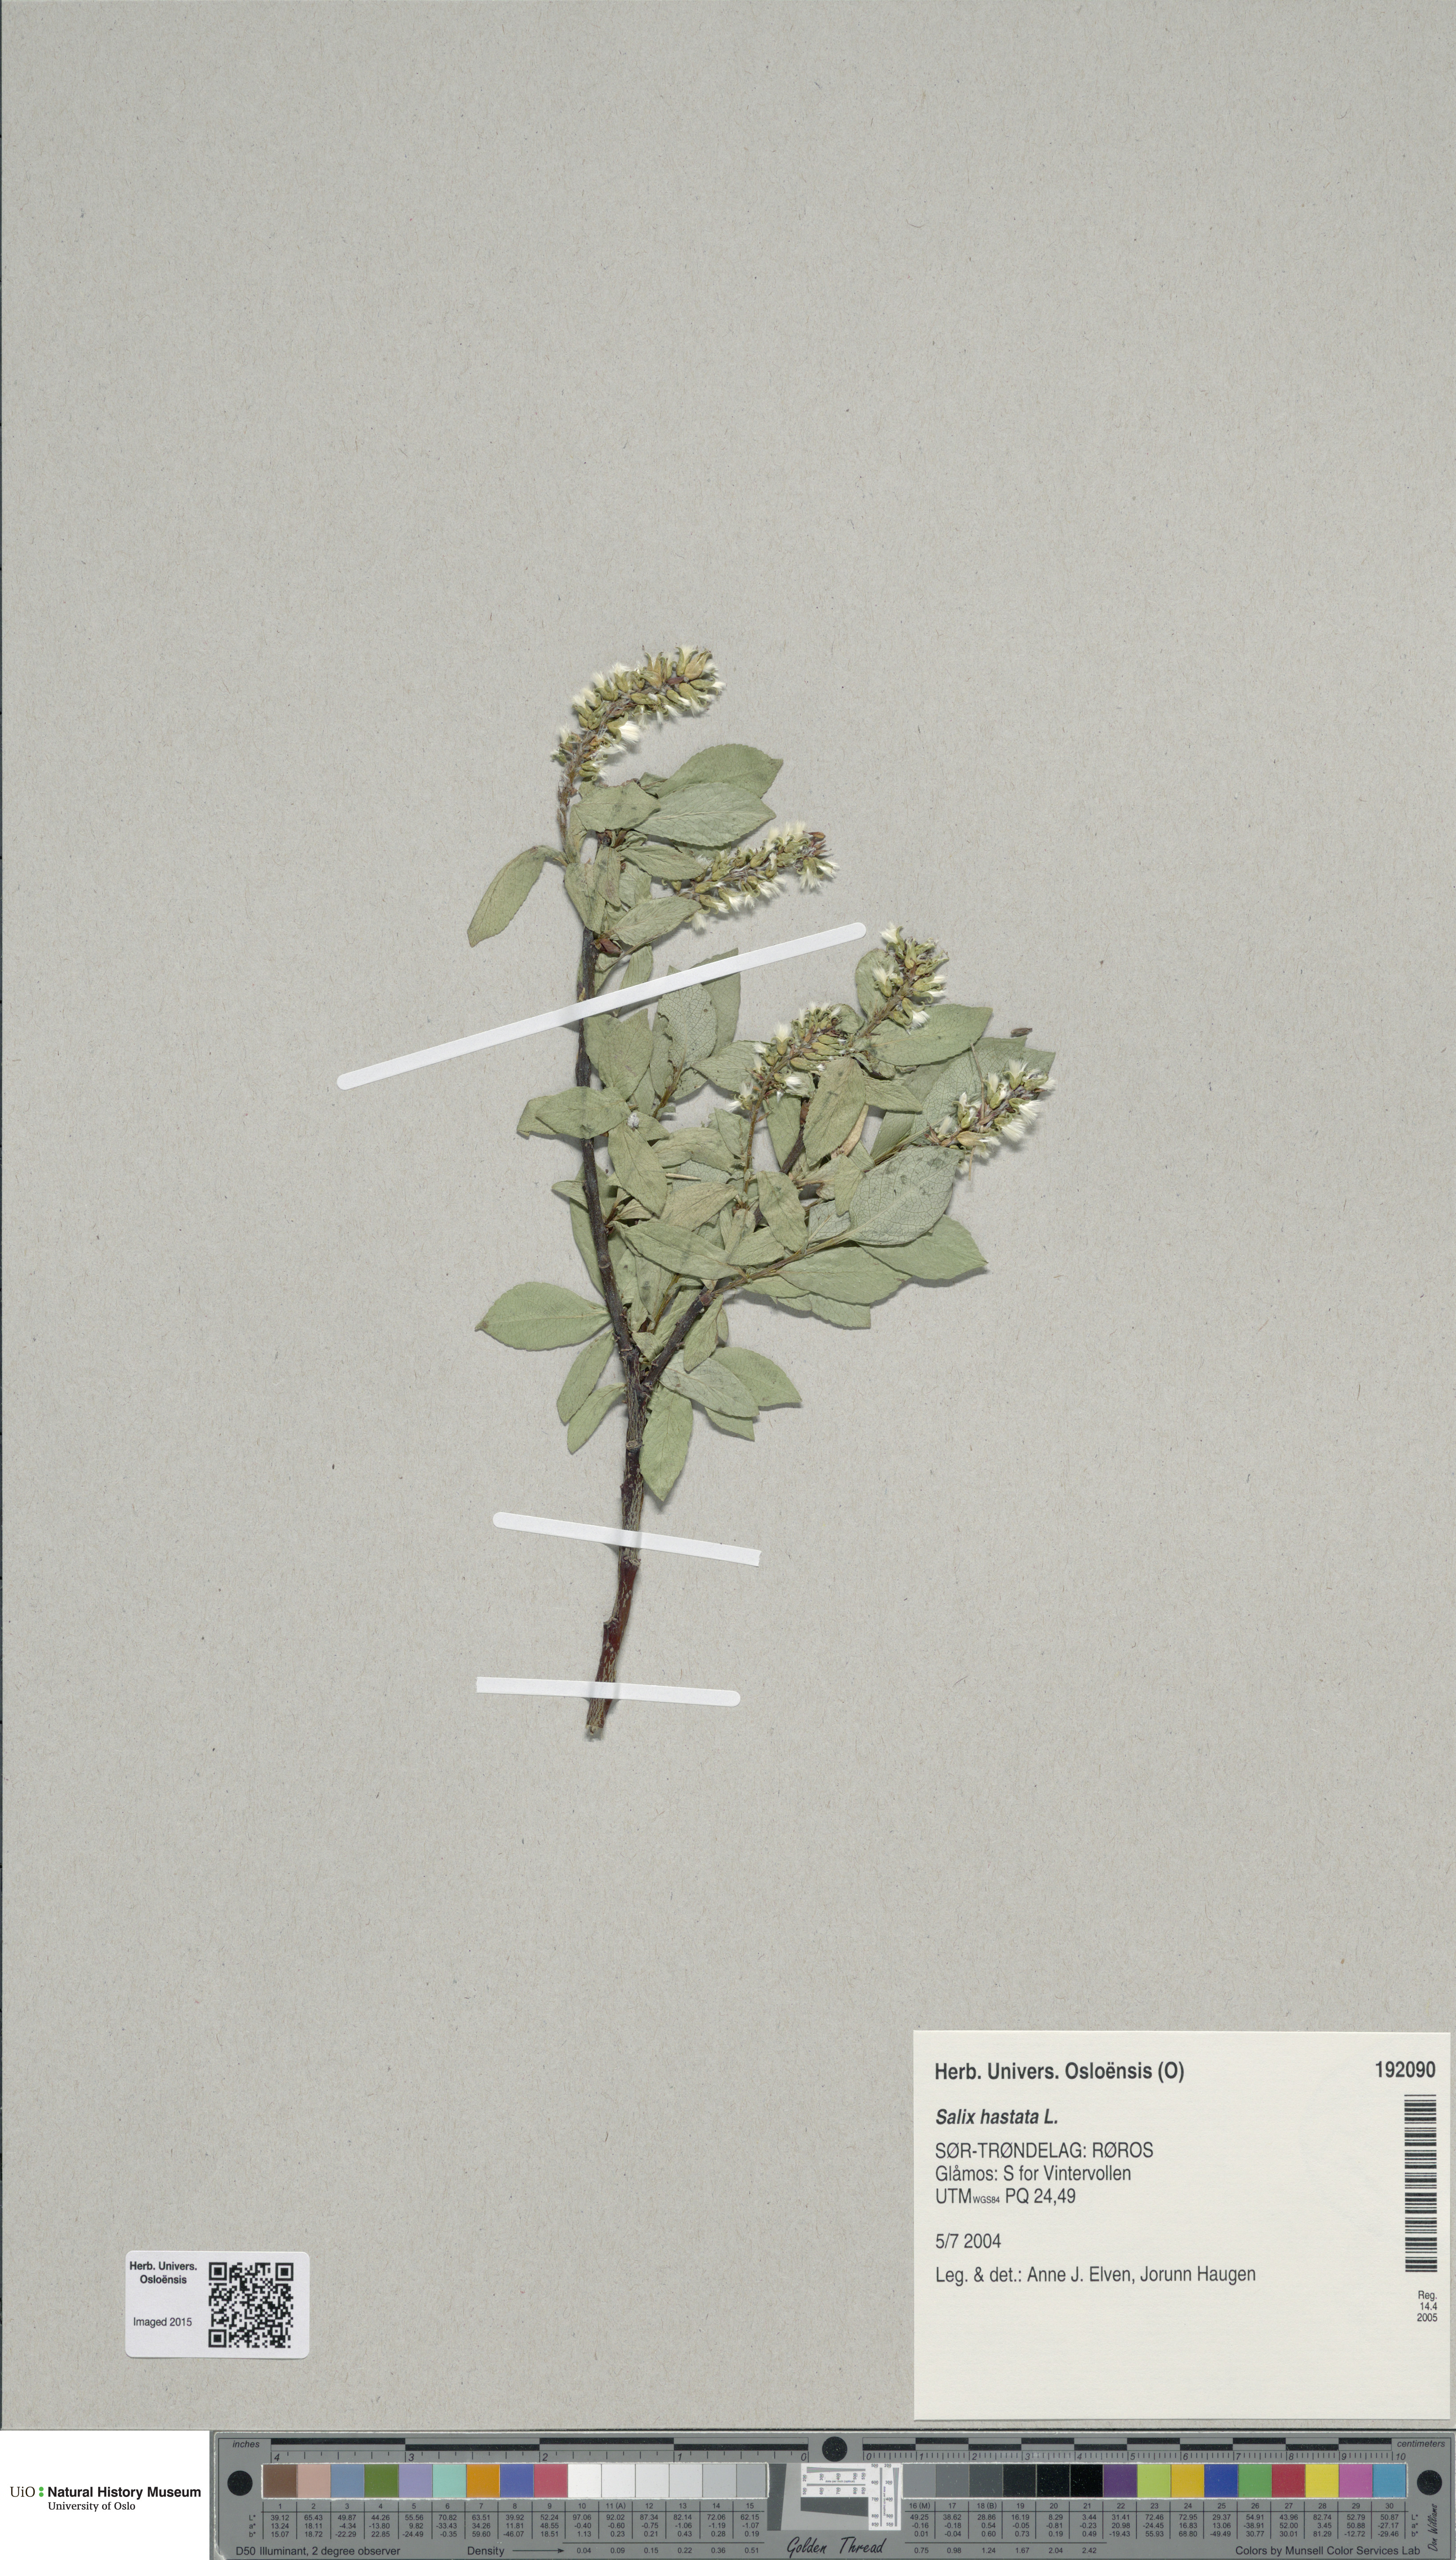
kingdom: Plantae
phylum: Tracheophyta
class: Magnoliopsida
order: Malpighiales
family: Salicaceae
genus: Salix
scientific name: Salix hastata
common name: Halberd willow
